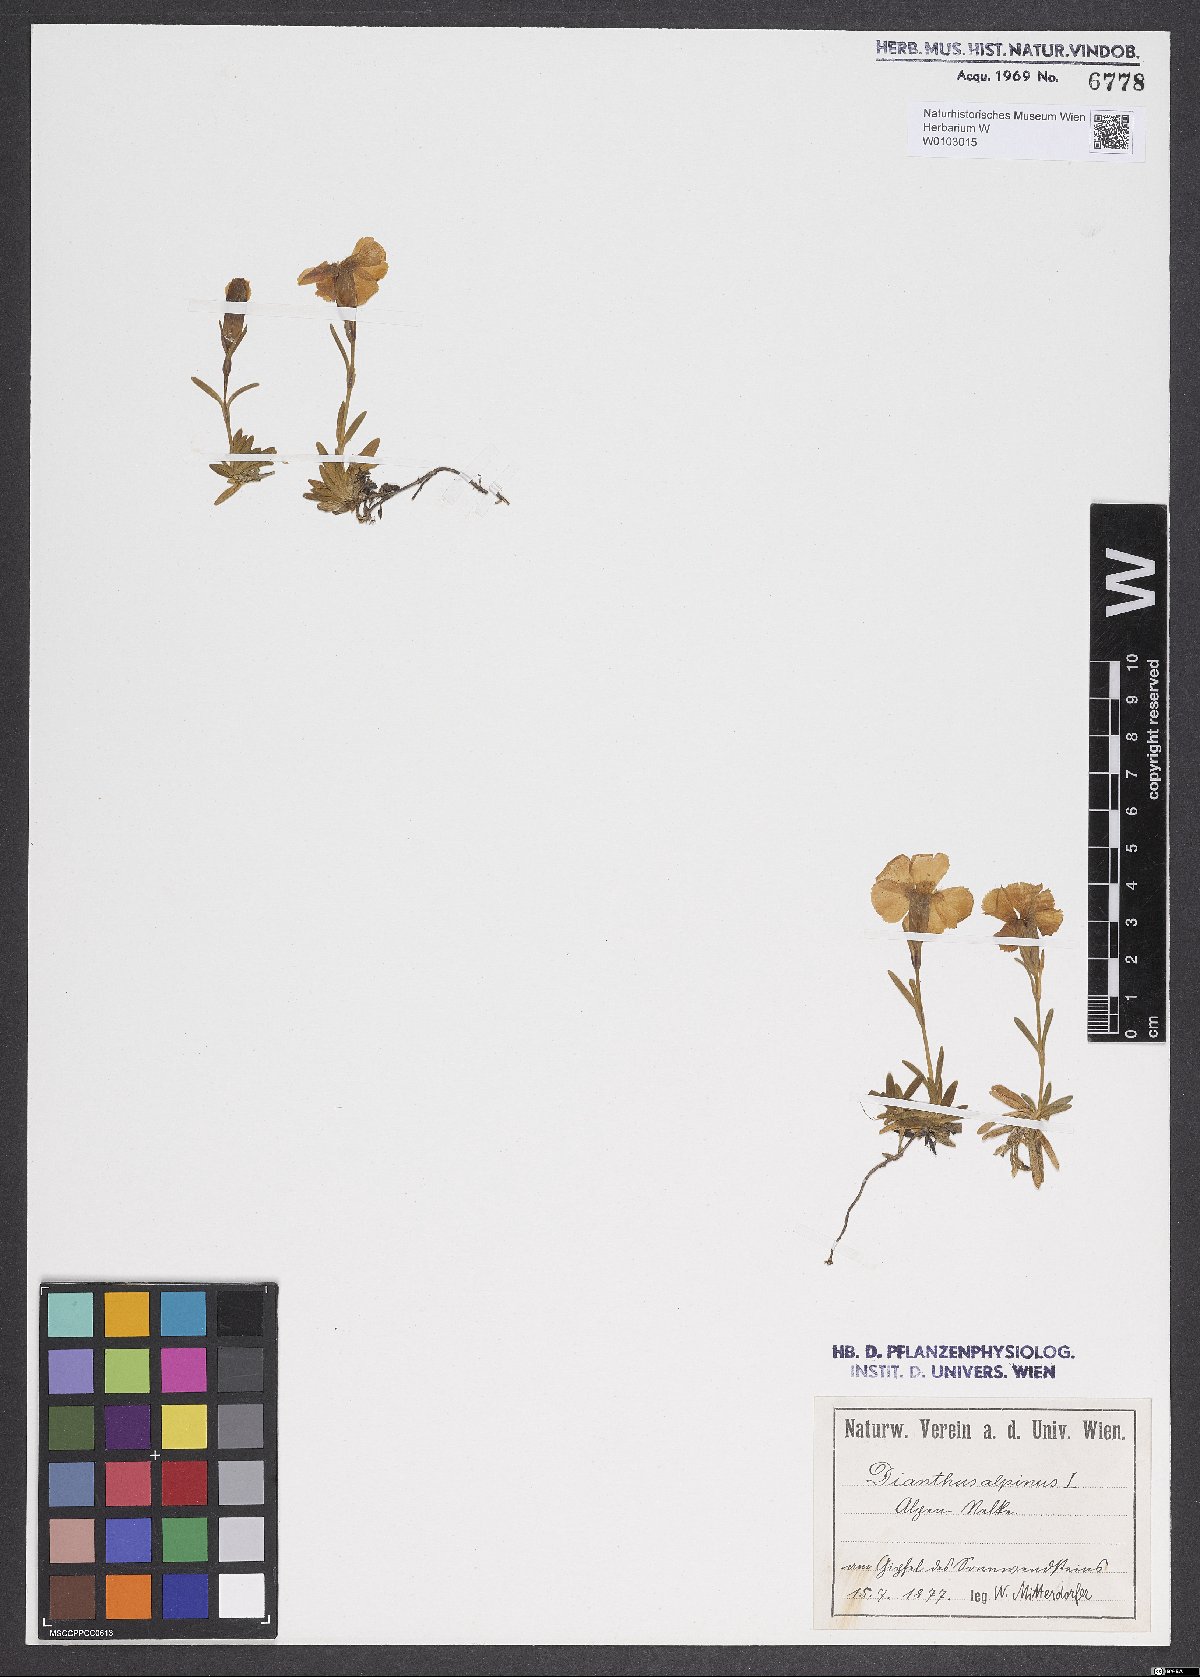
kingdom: Plantae
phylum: Tracheophyta
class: Magnoliopsida
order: Caryophyllales
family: Caryophyllaceae
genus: Dianthus
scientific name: Dianthus alpinus
